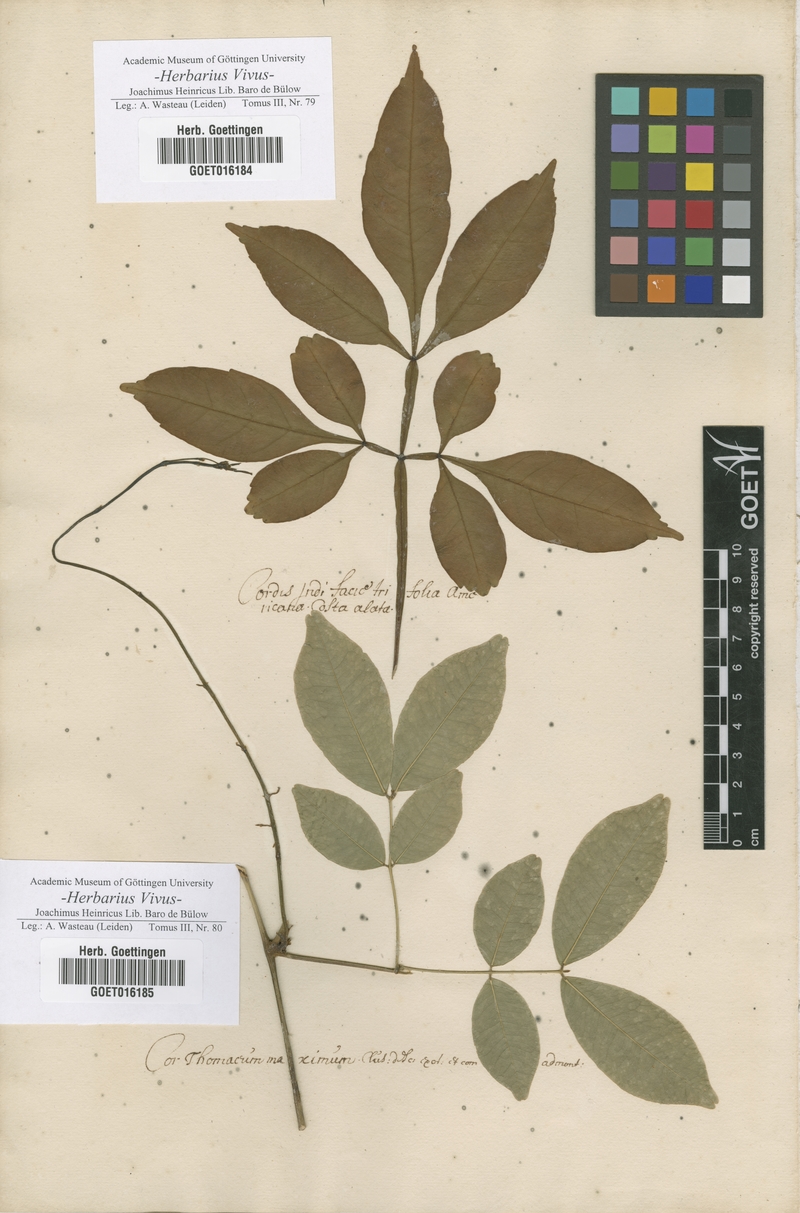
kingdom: Plantae
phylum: Tracheophyta
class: Magnoliopsida
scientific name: Magnoliopsida
